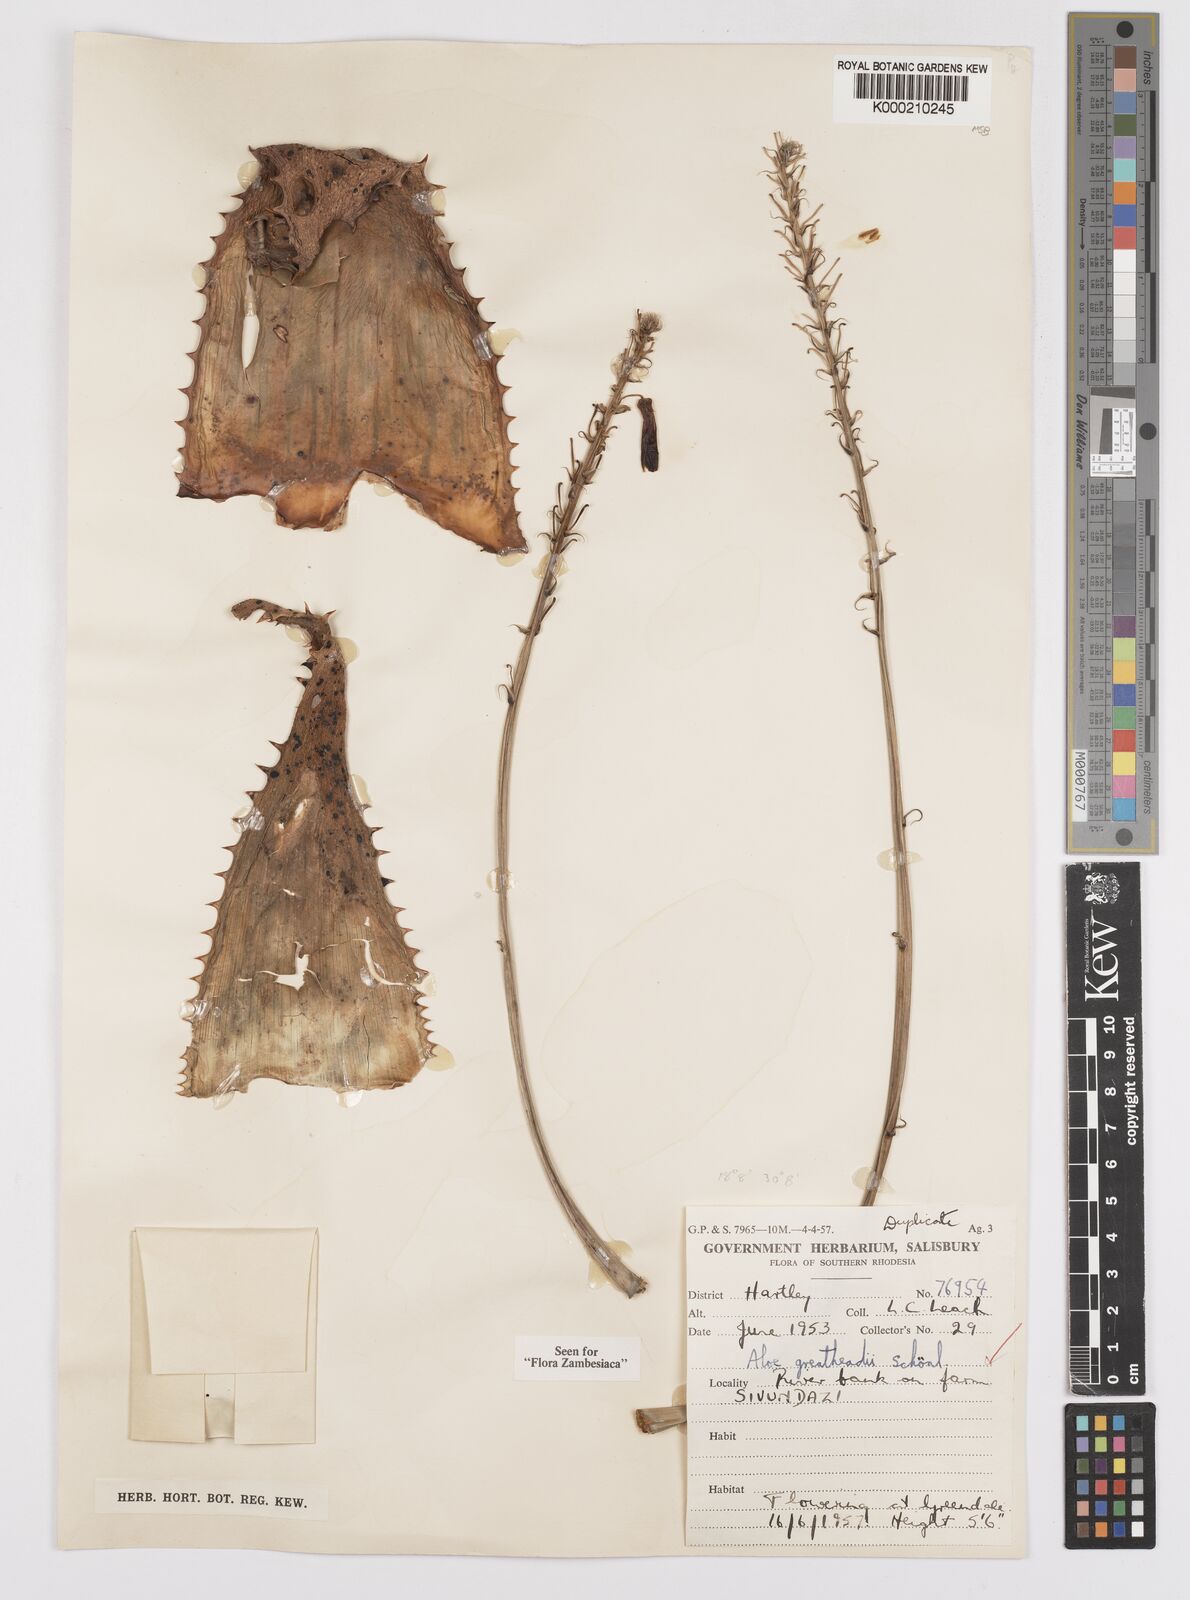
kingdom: Plantae
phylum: Tracheophyta
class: Liliopsida
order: Asparagales
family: Asphodelaceae
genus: Aloe
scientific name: Aloe greatheadii
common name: Greathead's aloe
